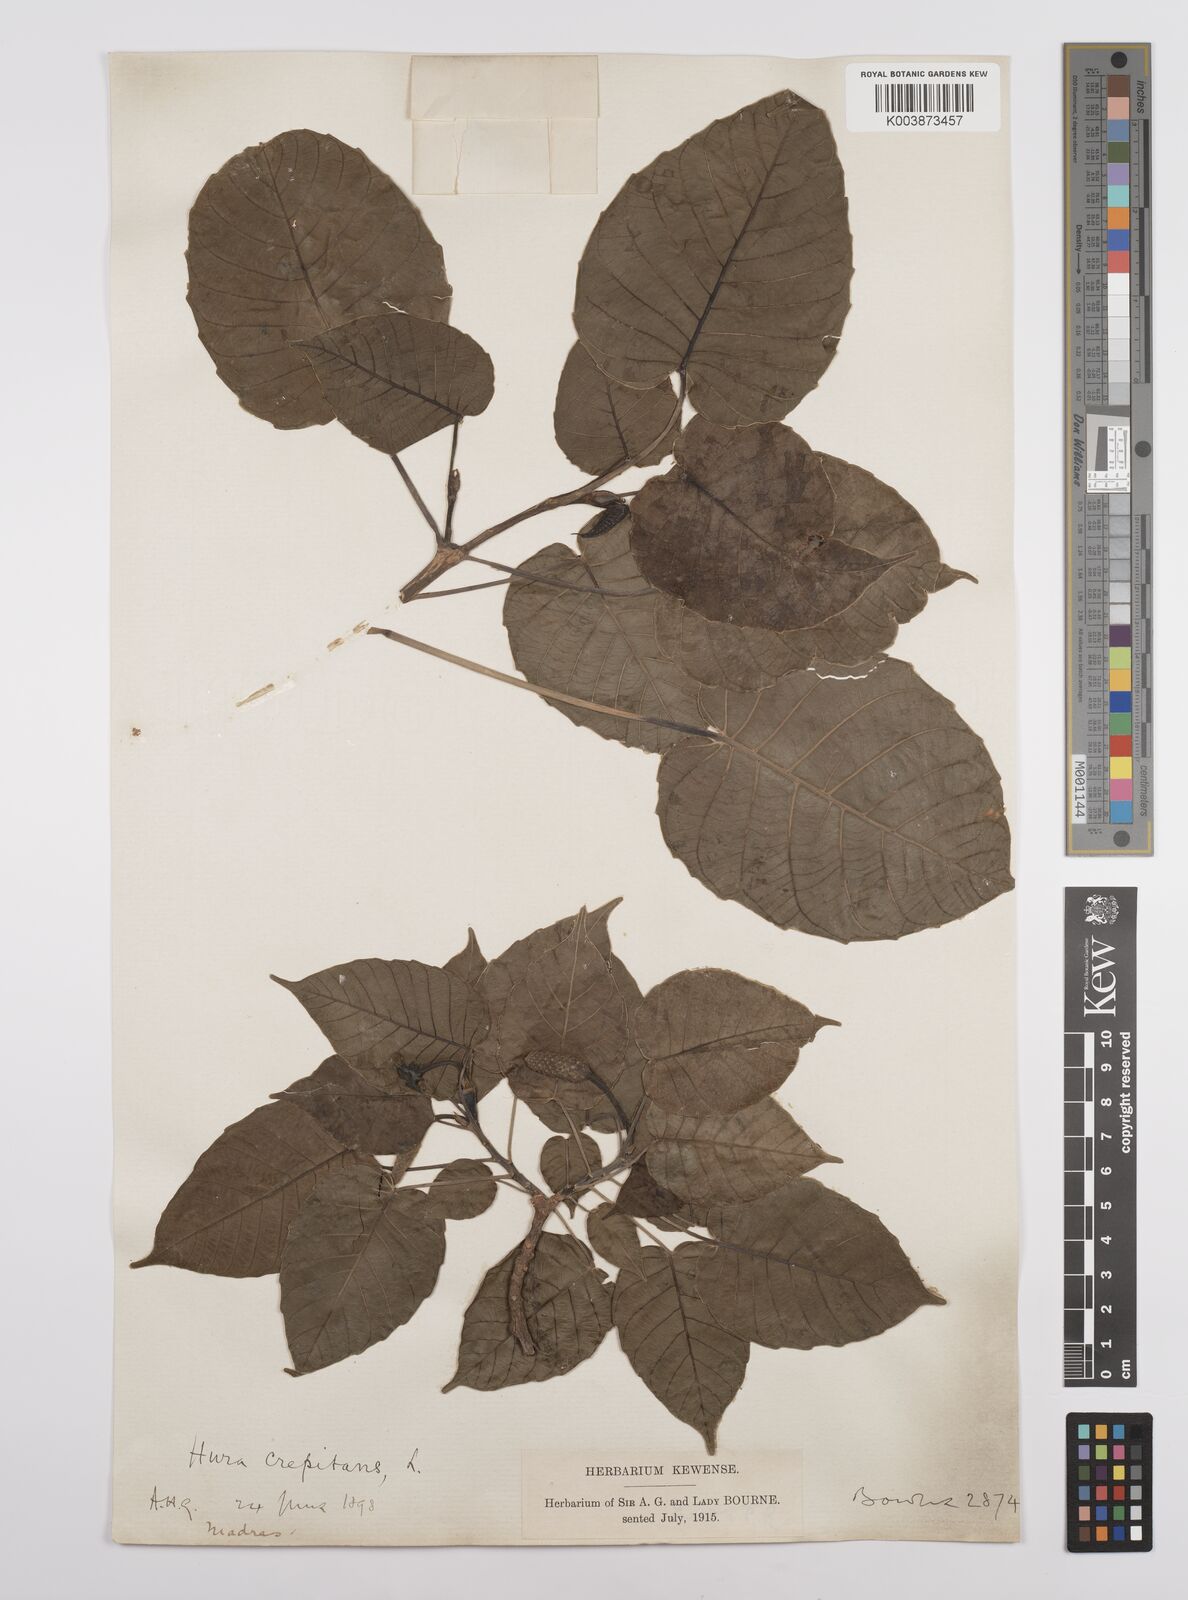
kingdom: Plantae
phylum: Tracheophyta
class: Magnoliopsida
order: Malpighiales
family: Euphorbiaceae
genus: Hura
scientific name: Hura crepitans
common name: Sandboxtree
